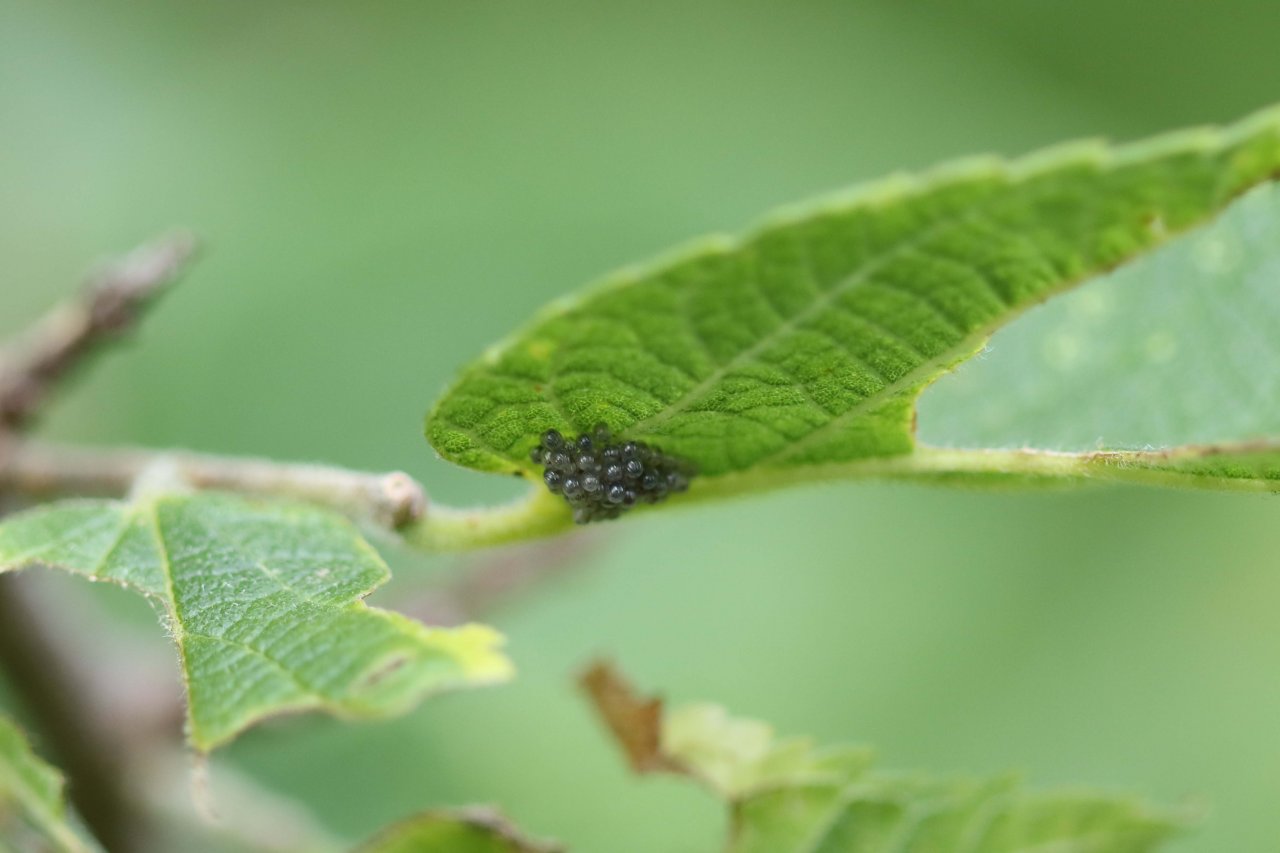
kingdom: Animalia
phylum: Arthropoda
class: Insecta
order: Lepidoptera
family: Nymphalidae
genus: Asterocampa
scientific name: Asterocampa clyton
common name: Tawny Emperor
